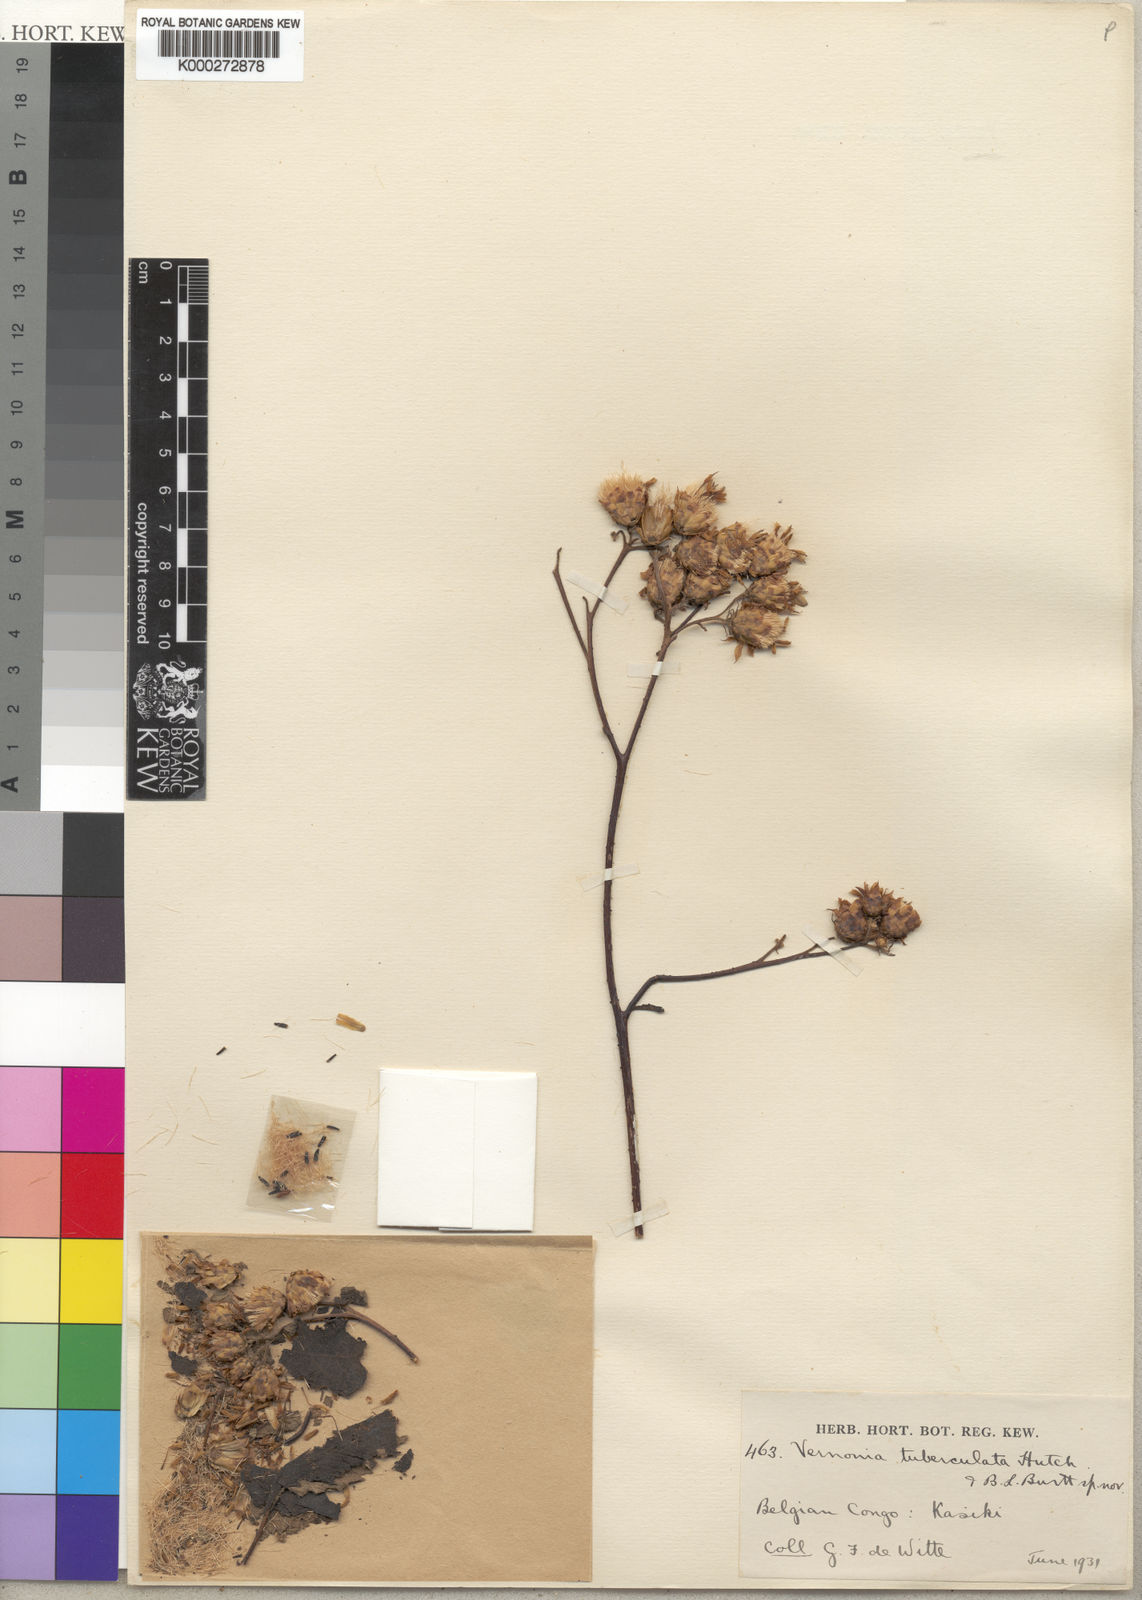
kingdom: Plantae
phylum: Tracheophyta
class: Magnoliopsida
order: Asterales
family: Asteraceae
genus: Baccharoides
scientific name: Baccharoides ringoetii
